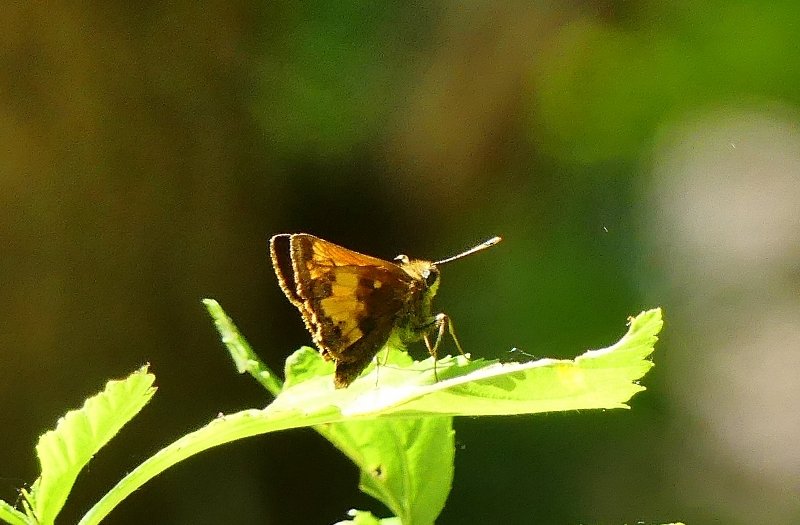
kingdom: Animalia
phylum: Arthropoda
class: Insecta
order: Lepidoptera
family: Hesperiidae
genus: Lon
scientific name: Lon hobomok
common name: Hobomok Skipper
